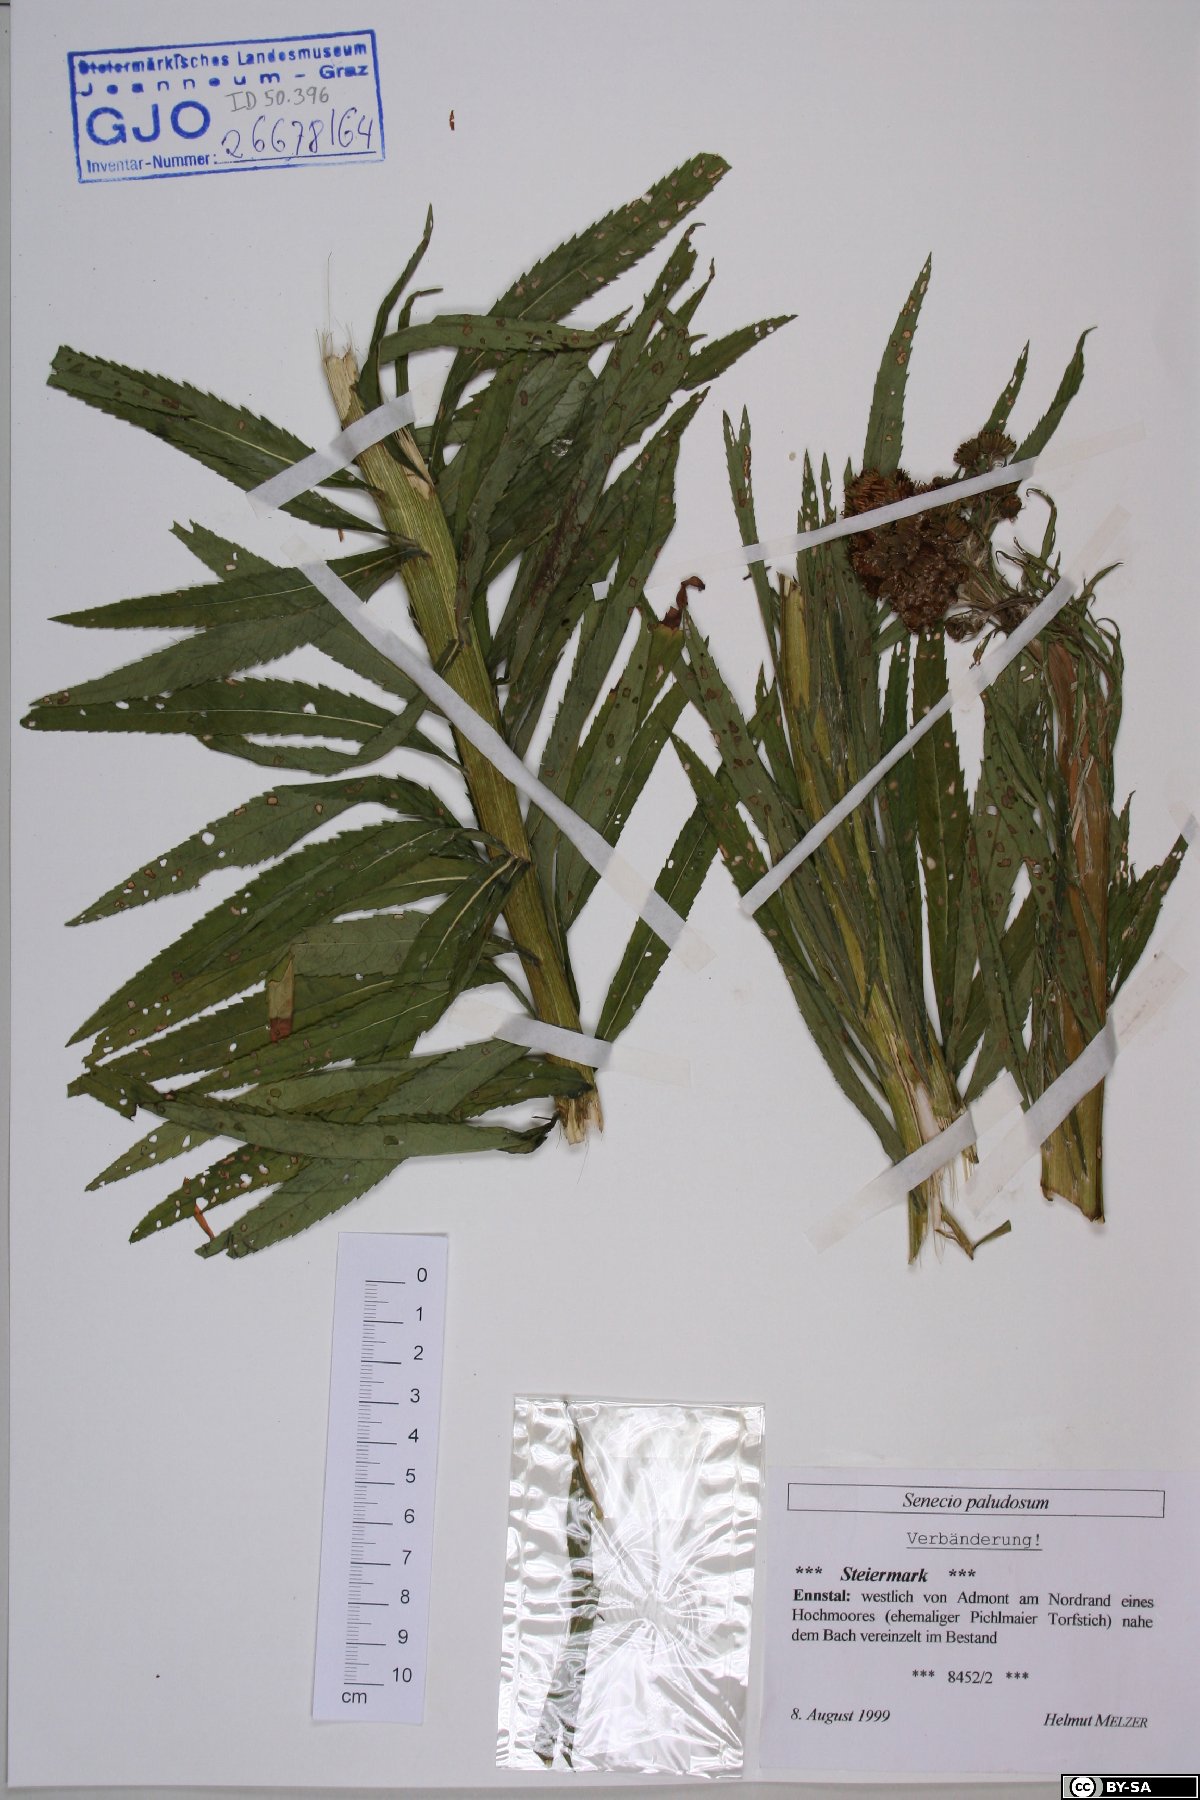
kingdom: Plantae
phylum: Tracheophyta
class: Magnoliopsida
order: Asterales
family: Asteraceae
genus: Jacobaea
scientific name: Jacobaea paludosa
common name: Fen ragwort
